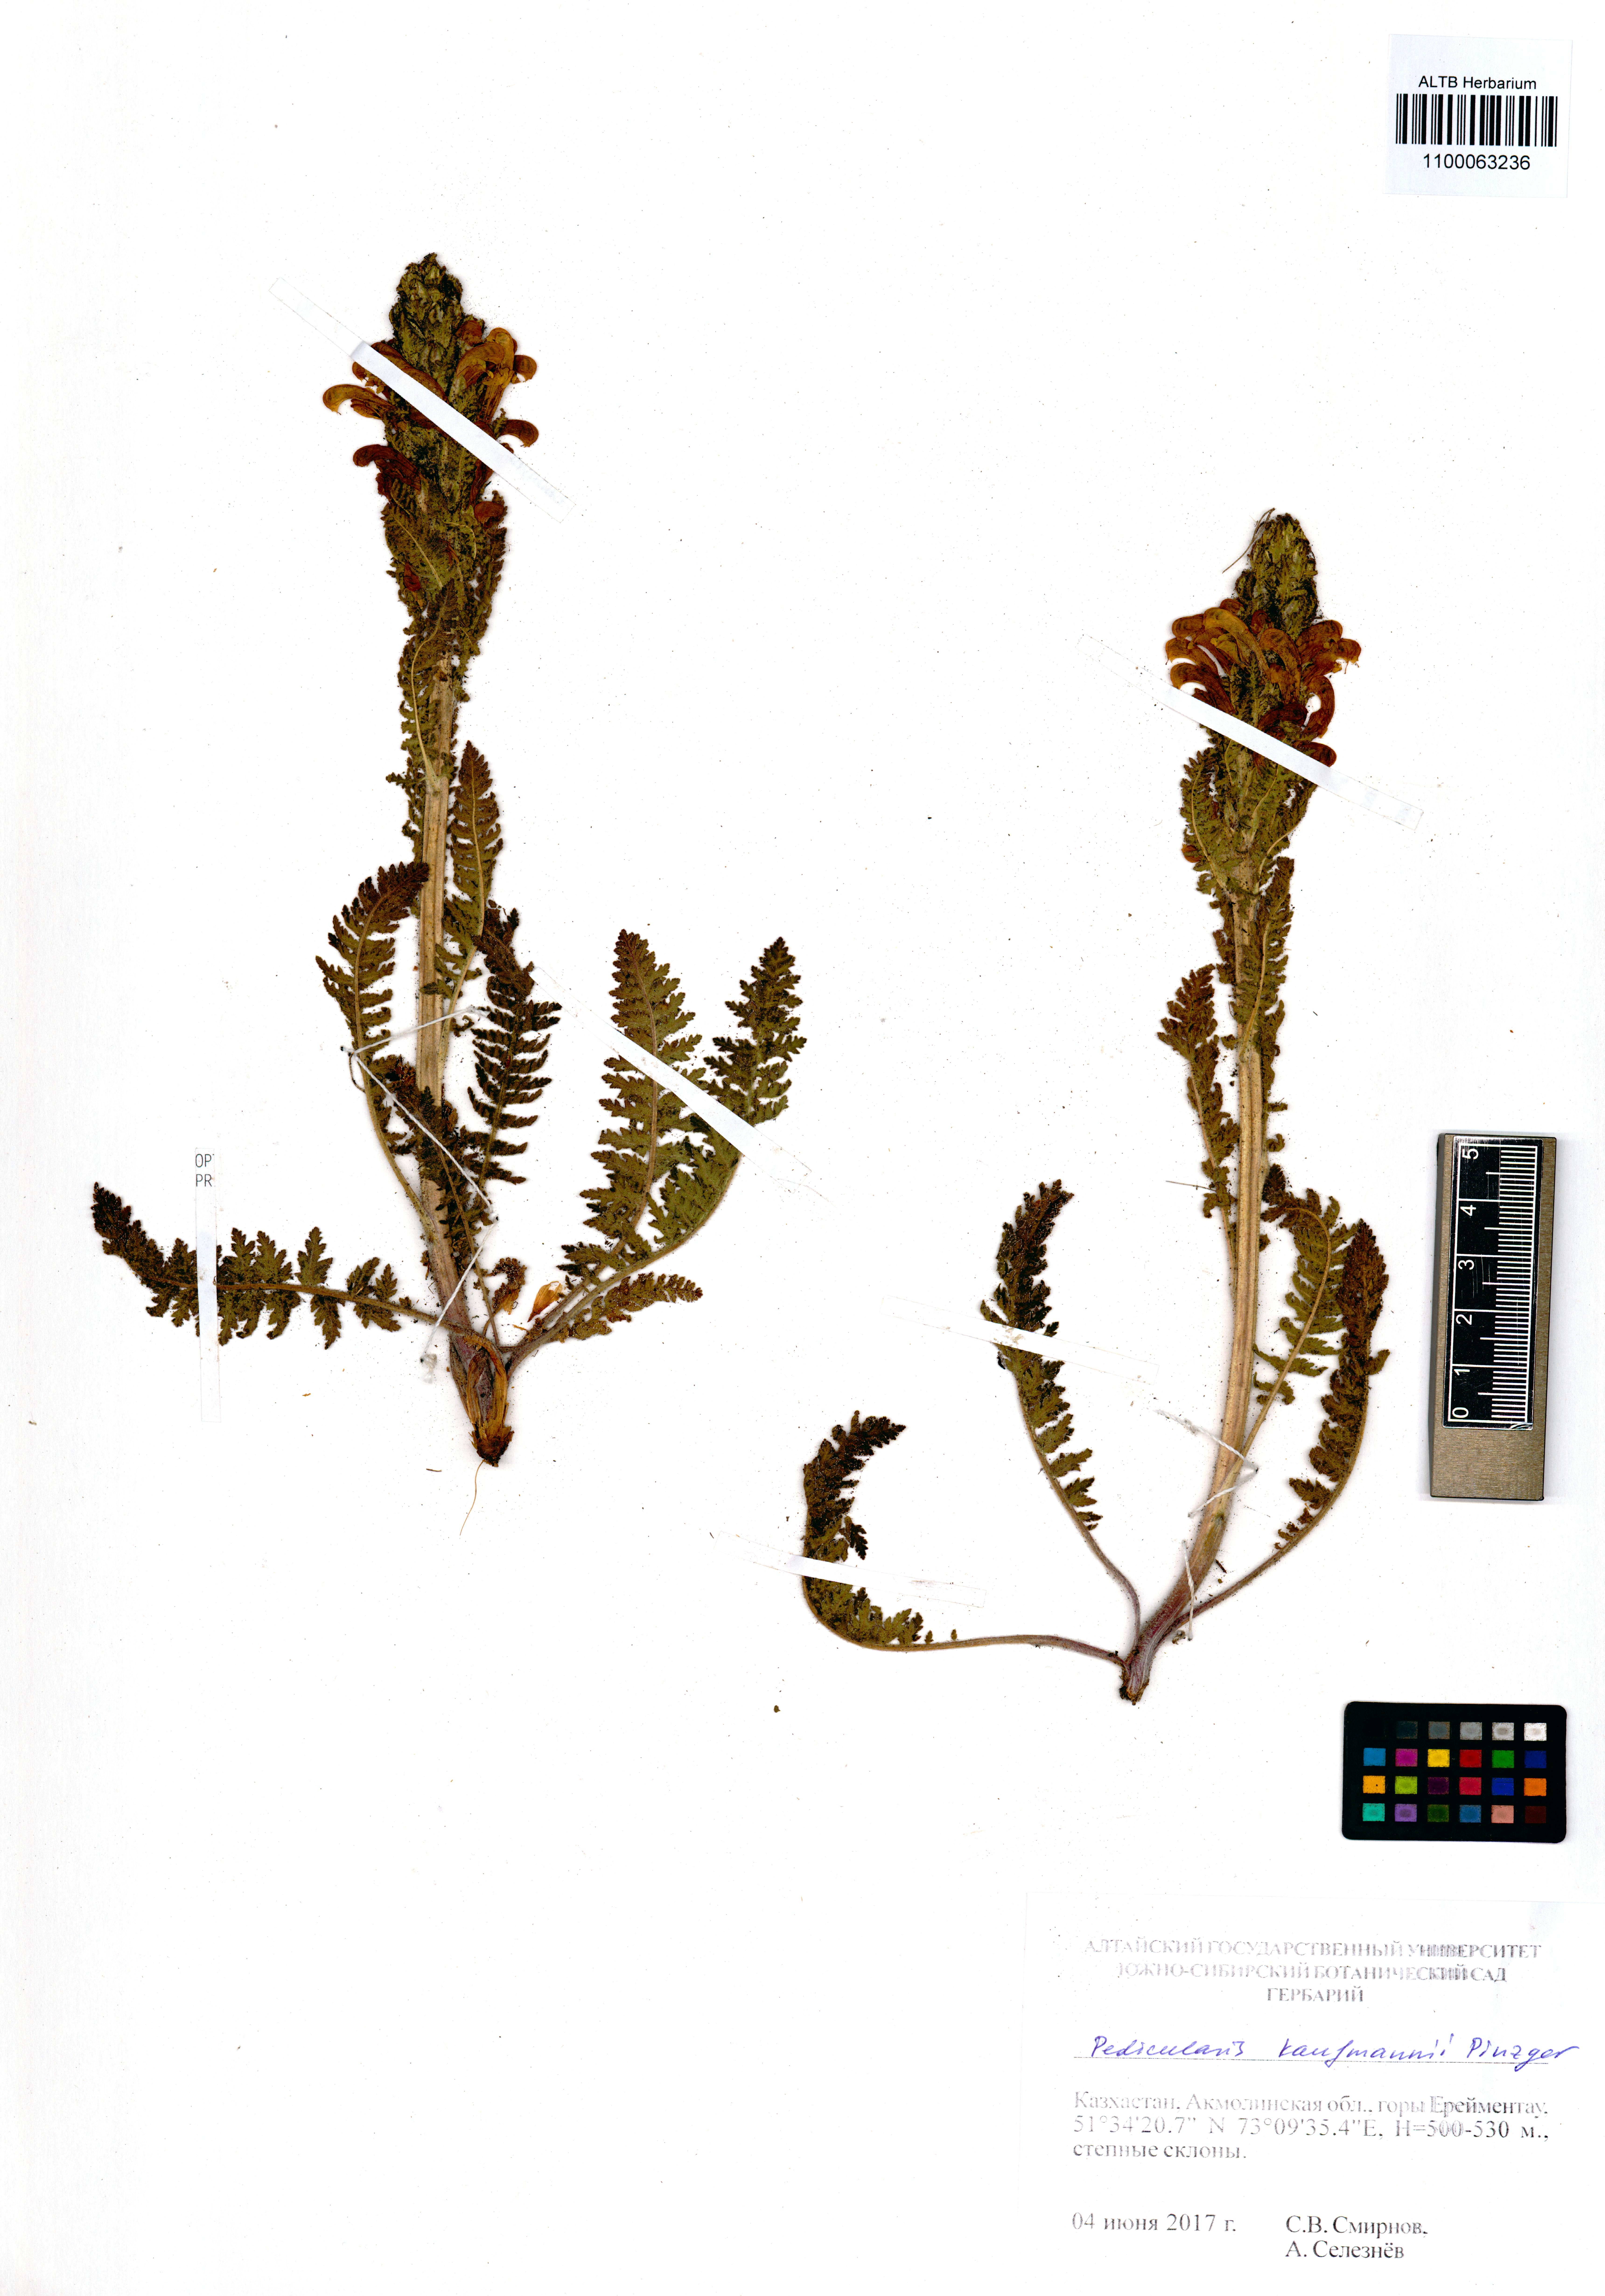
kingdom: Plantae
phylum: Tracheophyta
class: Magnoliopsida
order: Lamiales
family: Orobanchaceae
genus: Pedicularis
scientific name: Pedicularis kaufmannii
